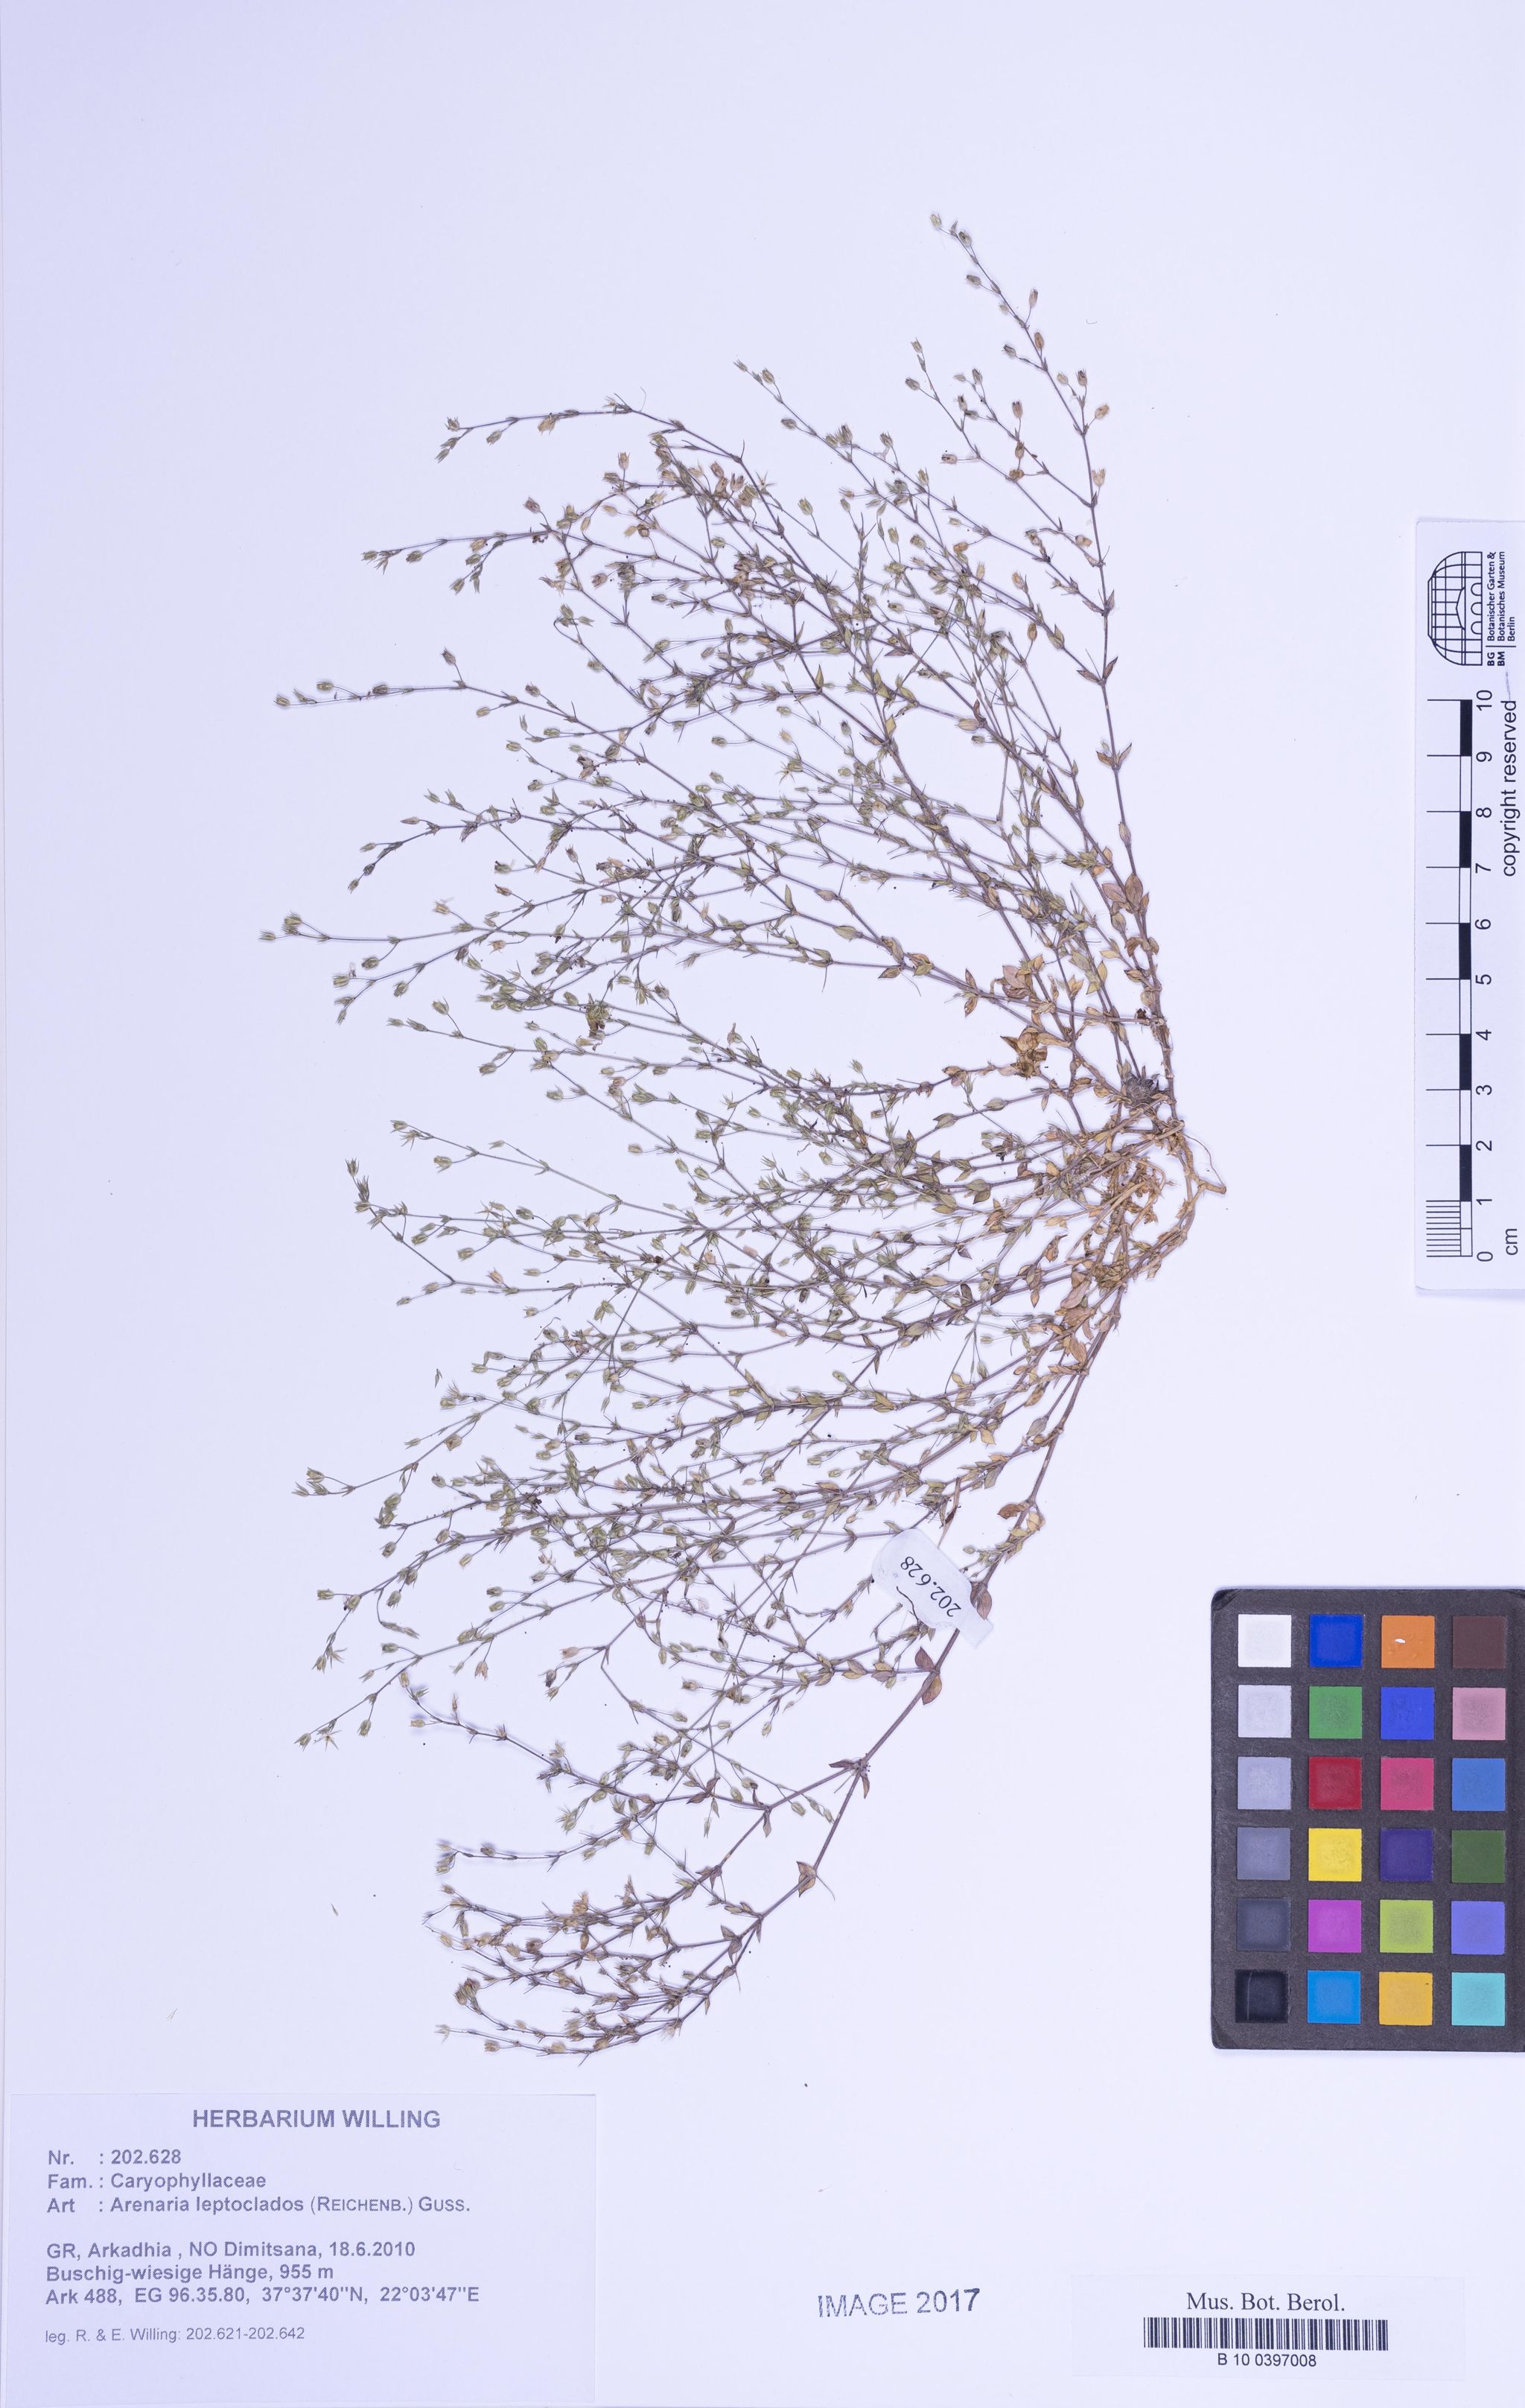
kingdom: Plantae
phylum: Tracheophyta
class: Magnoliopsida
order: Caryophyllales
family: Caryophyllaceae
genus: Arenaria
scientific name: Arenaria leptoclados
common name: Thyme-leaved sandwort
